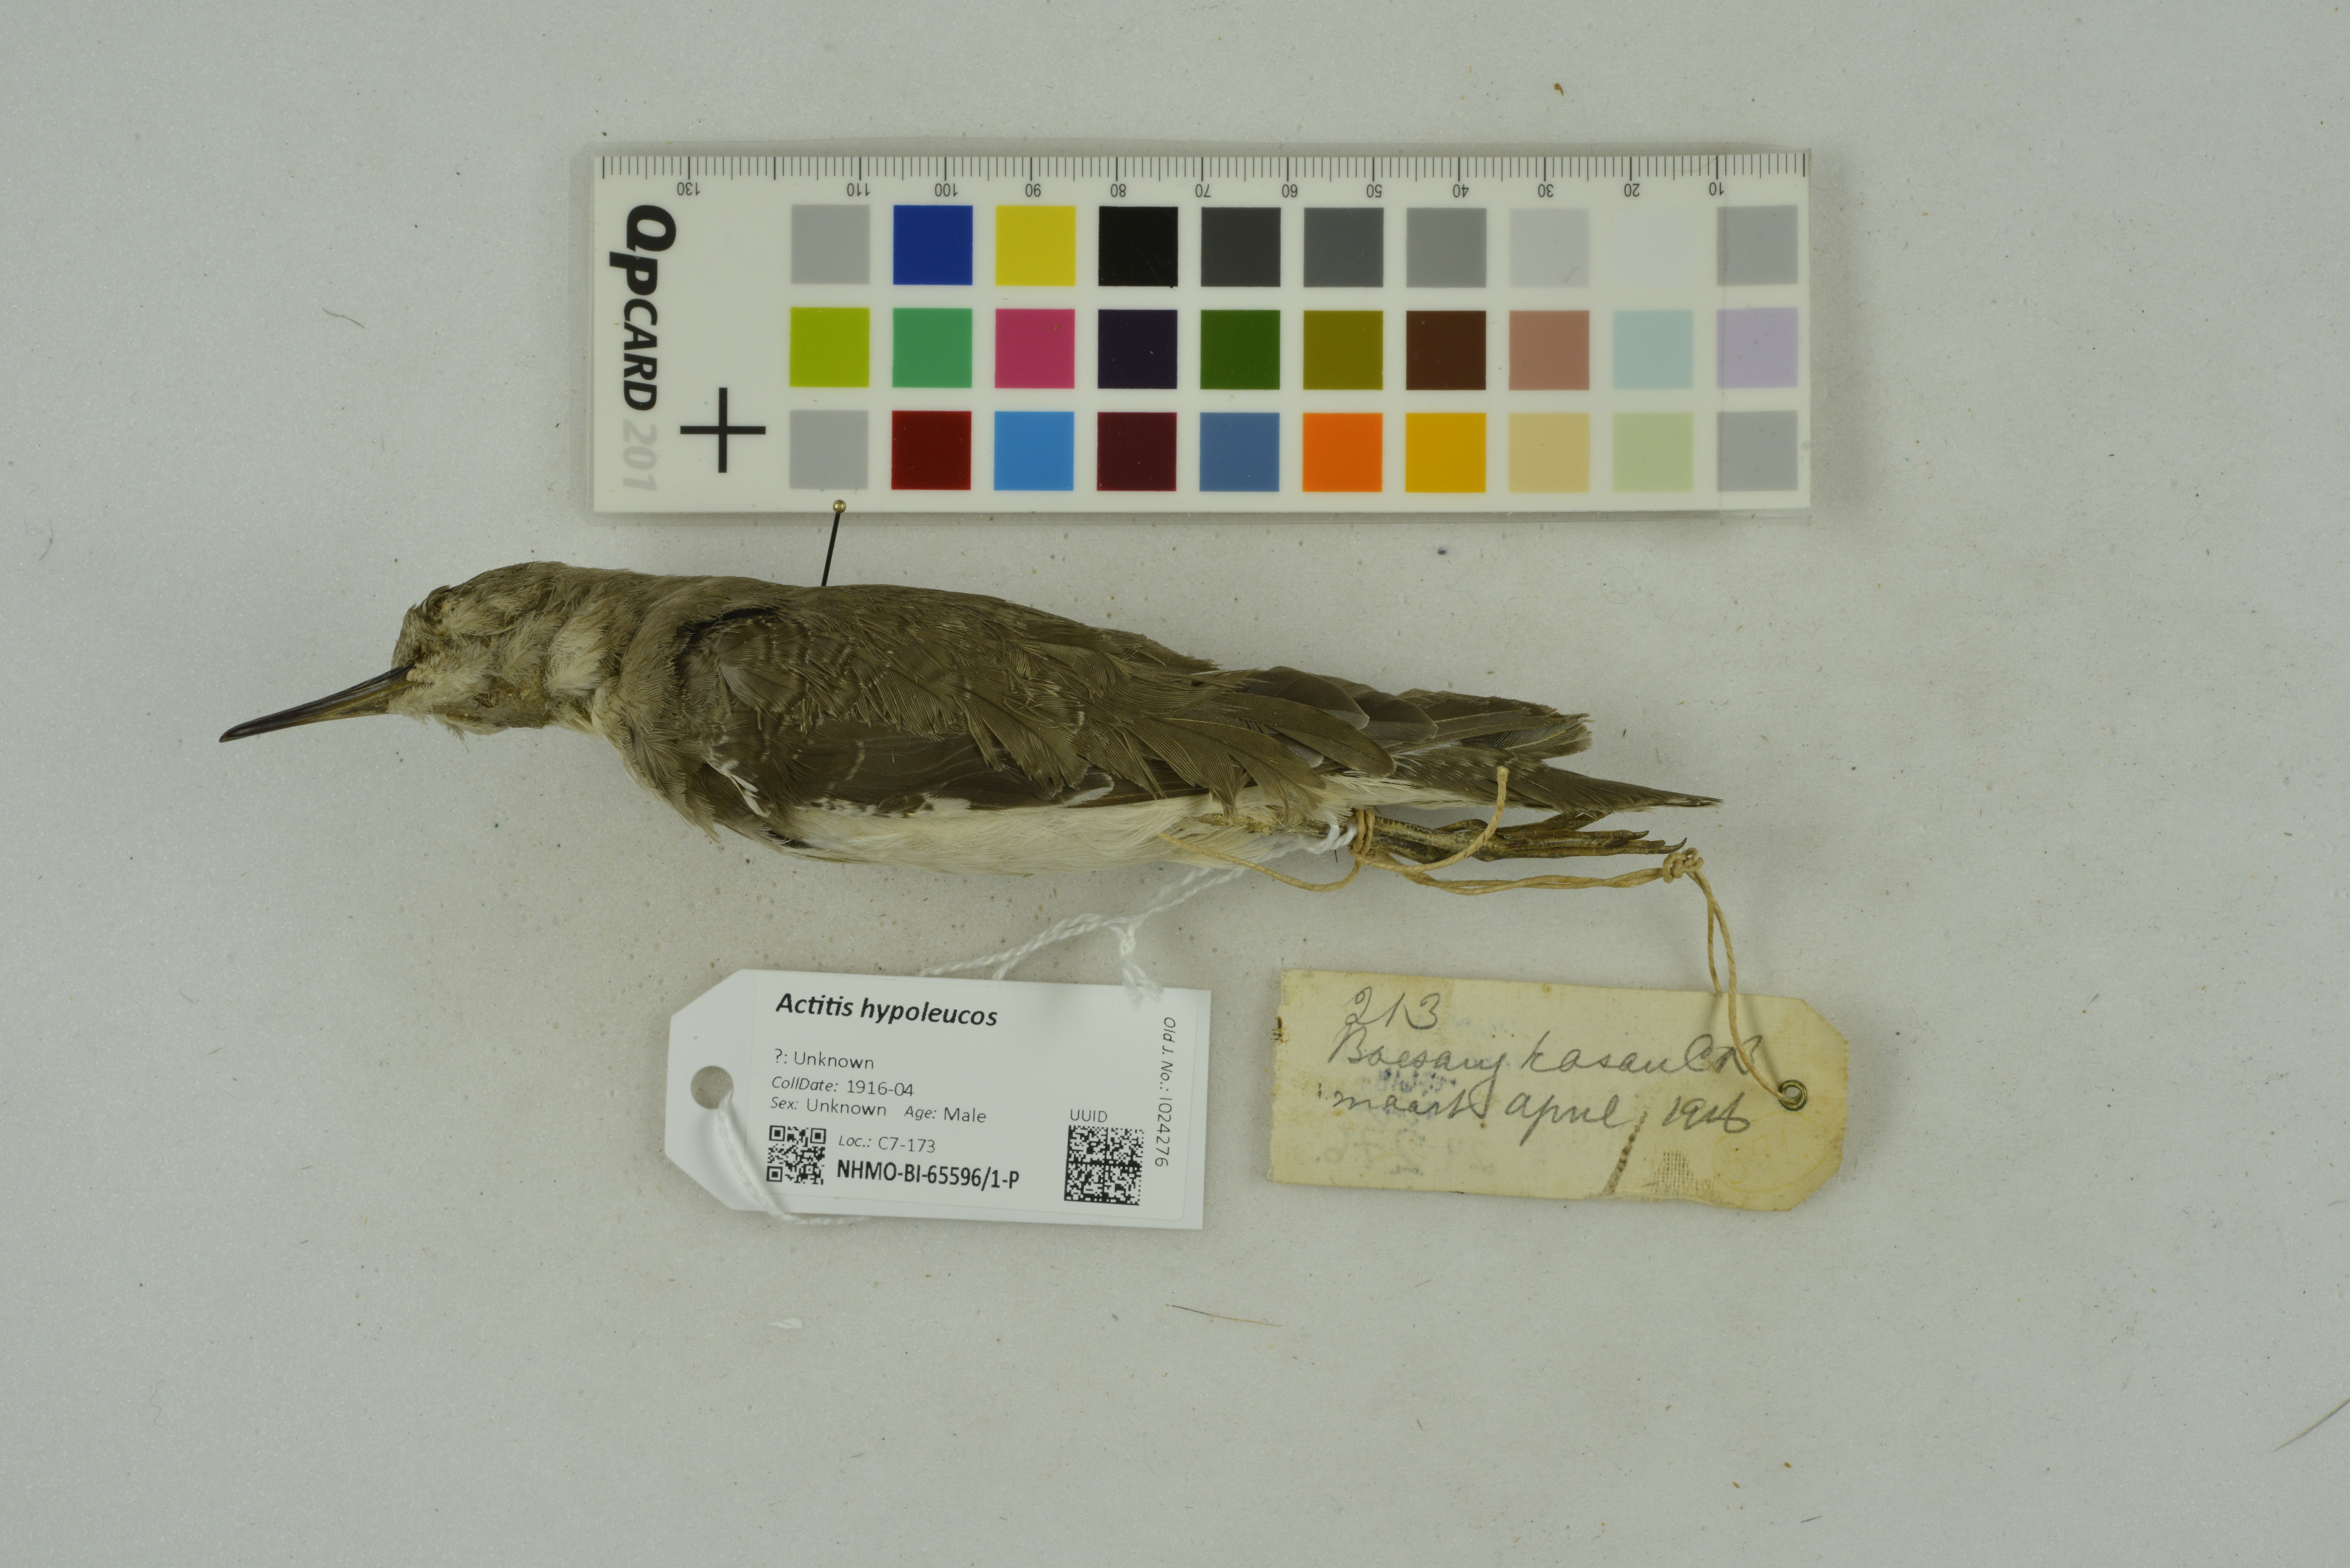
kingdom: Animalia
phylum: Chordata
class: Aves
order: Charadriiformes
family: Scolopacidae
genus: Actitis
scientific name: Actitis hypoleucos
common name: Common sandpiper
